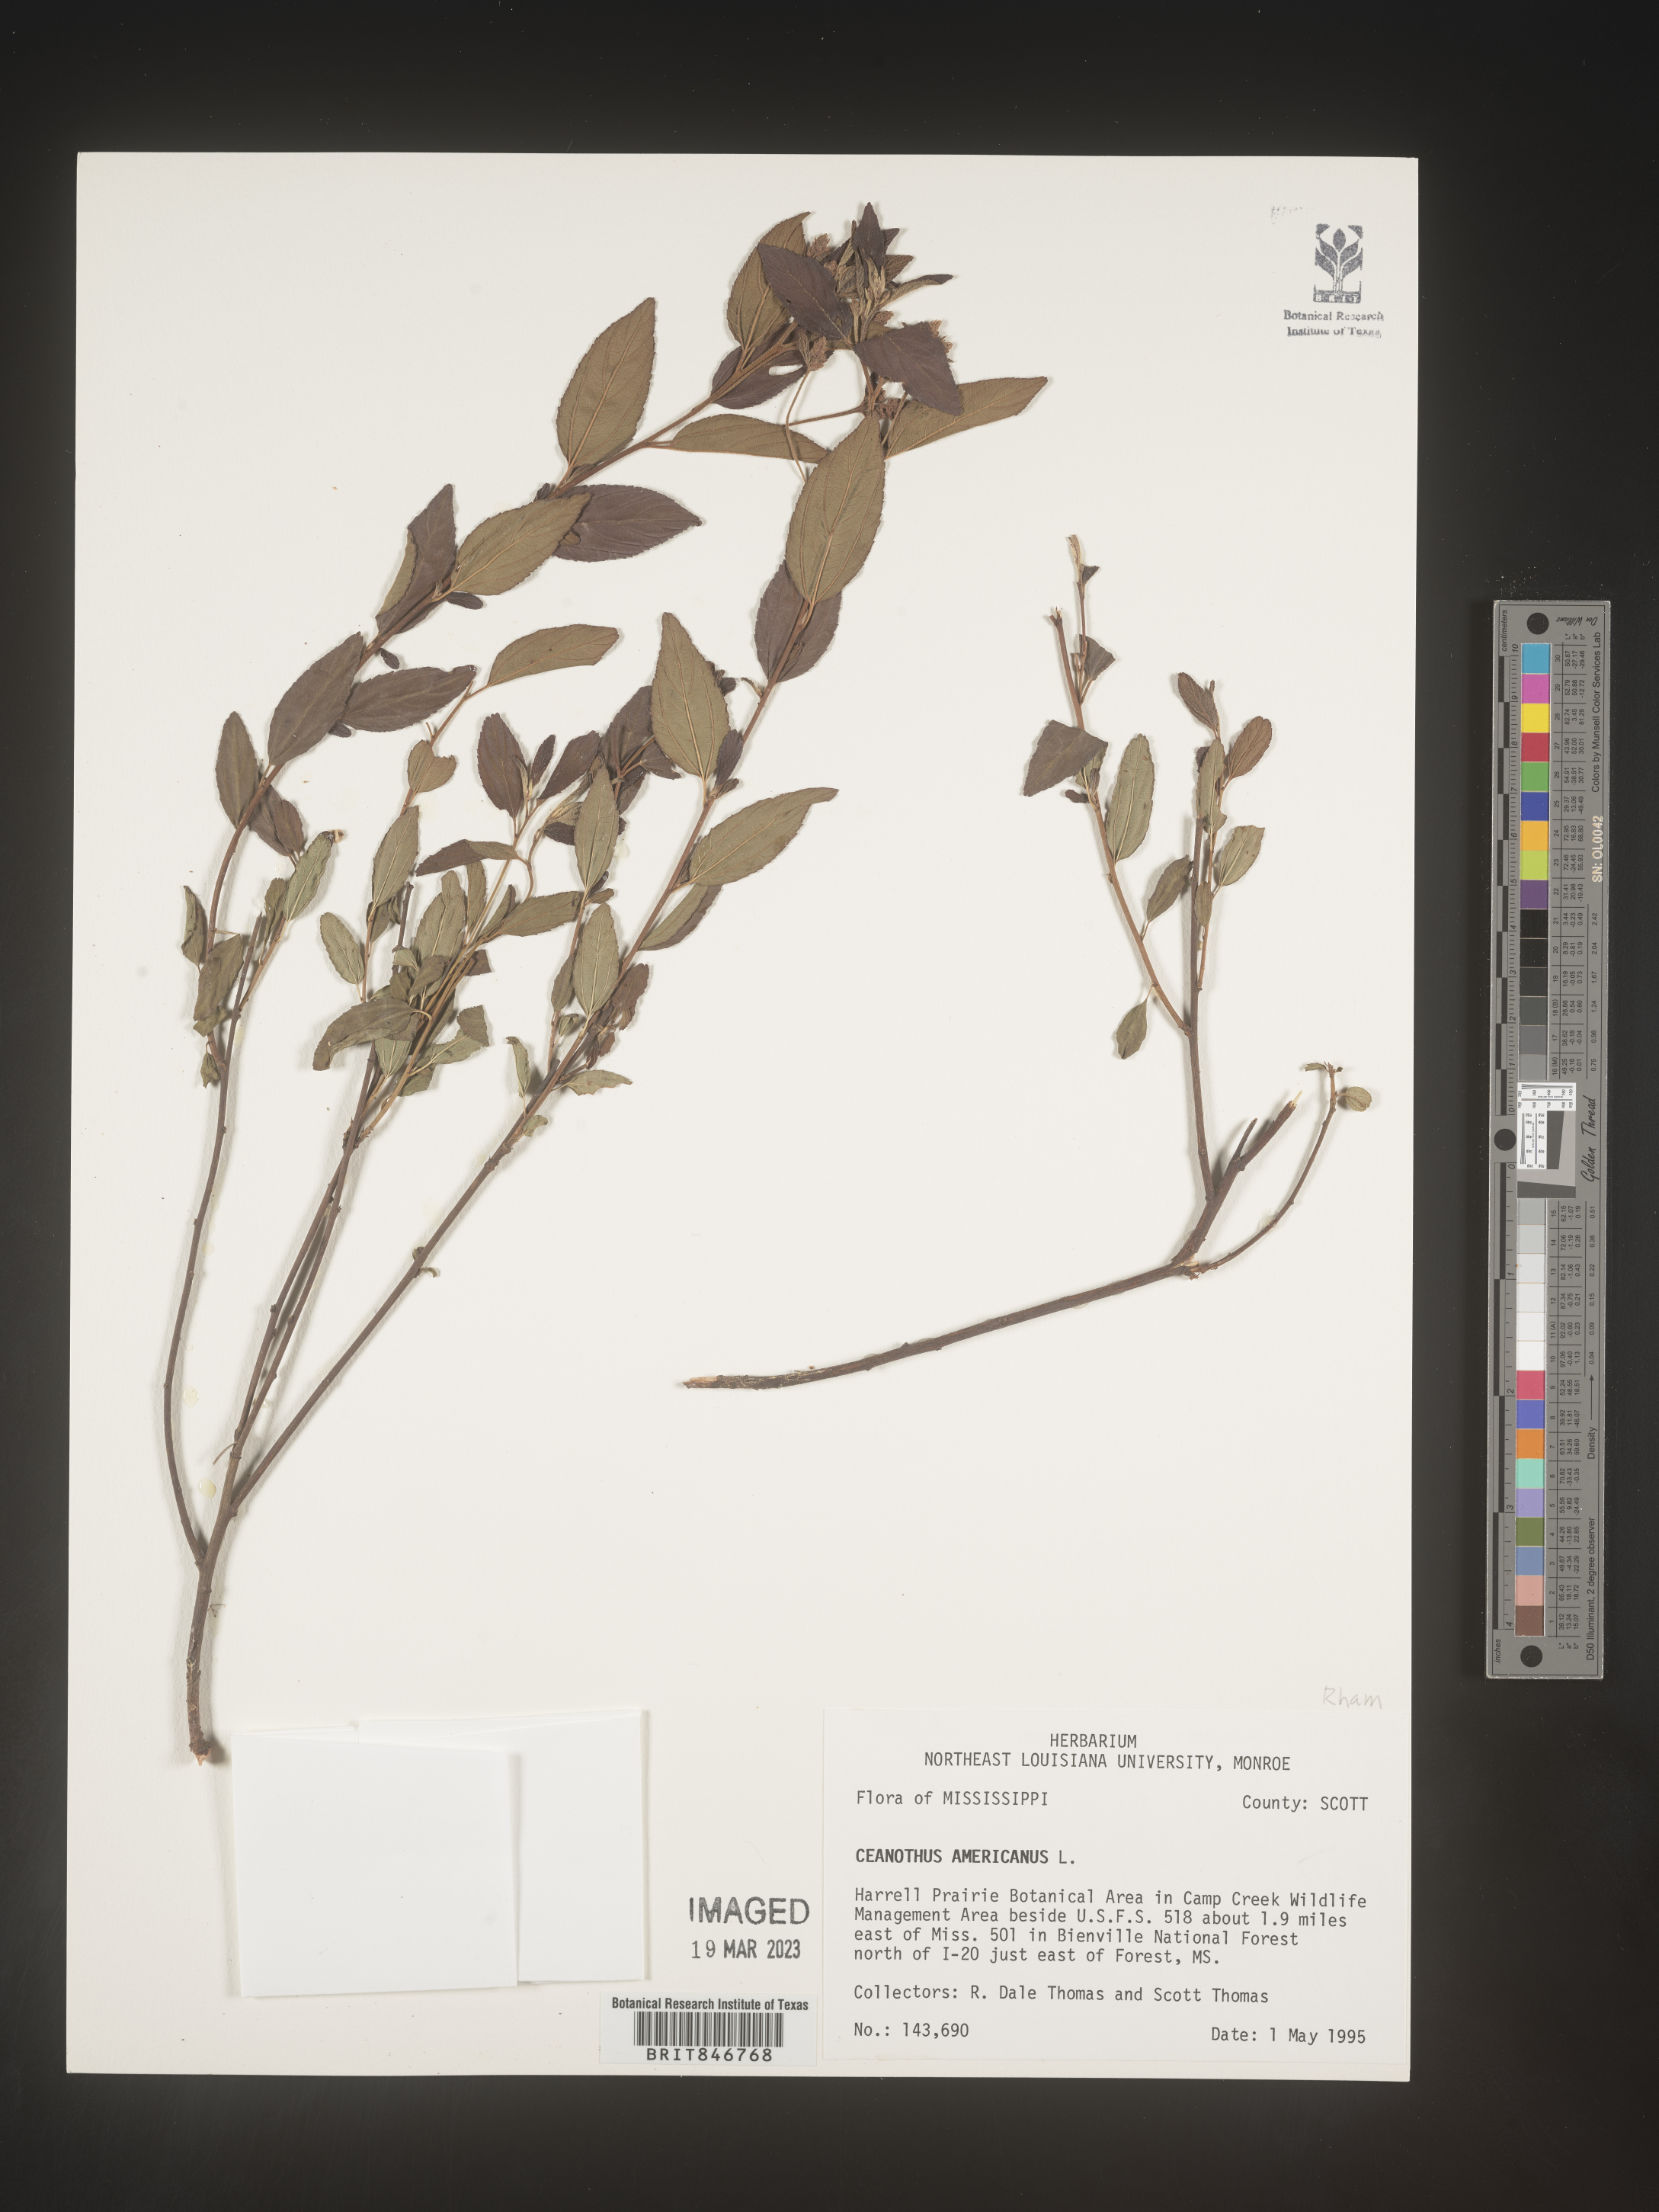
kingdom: Plantae
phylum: Tracheophyta
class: Magnoliopsida
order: Rosales
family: Rhamnaceae
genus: Ceanothus
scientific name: Ceanothus americanus
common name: Redroot
